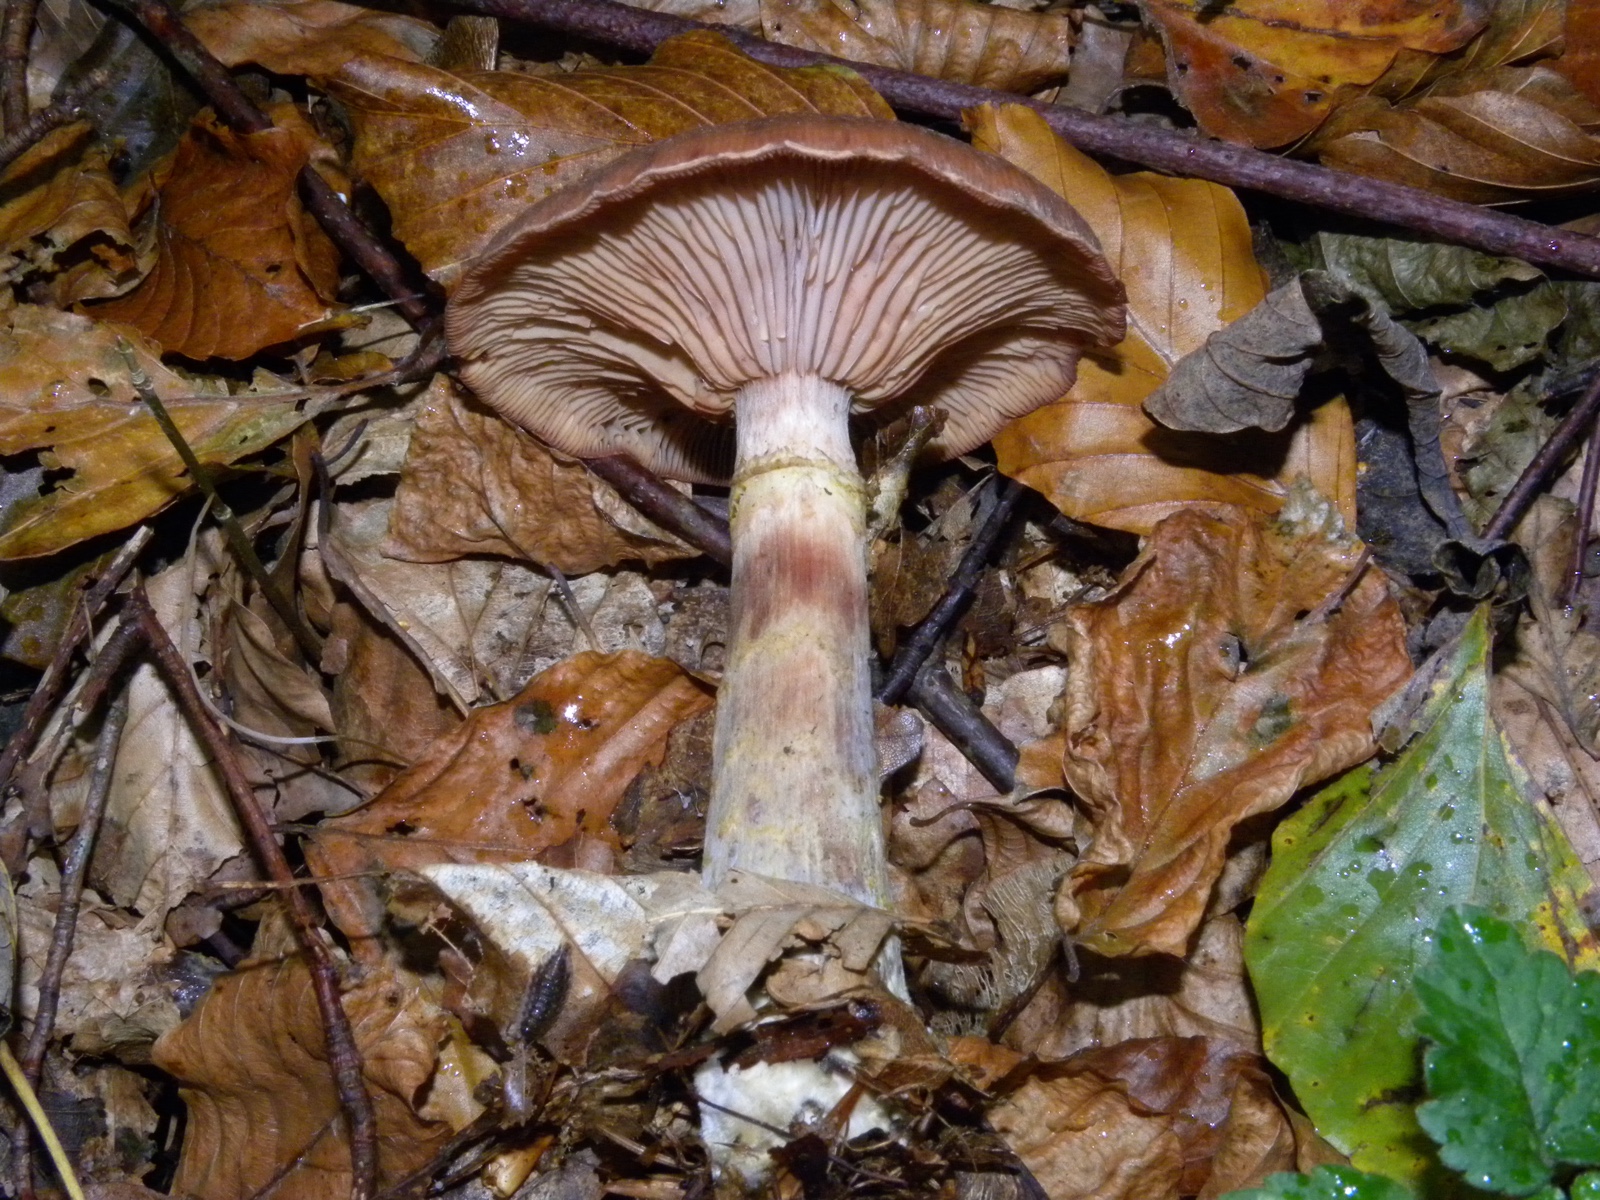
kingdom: Fungi
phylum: Basidiomycota
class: Agaricomycetes
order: Agaricales
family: Physalacriaceae
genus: Armillaria
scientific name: Armillaria lutea
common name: køllestokket honningsvamp
